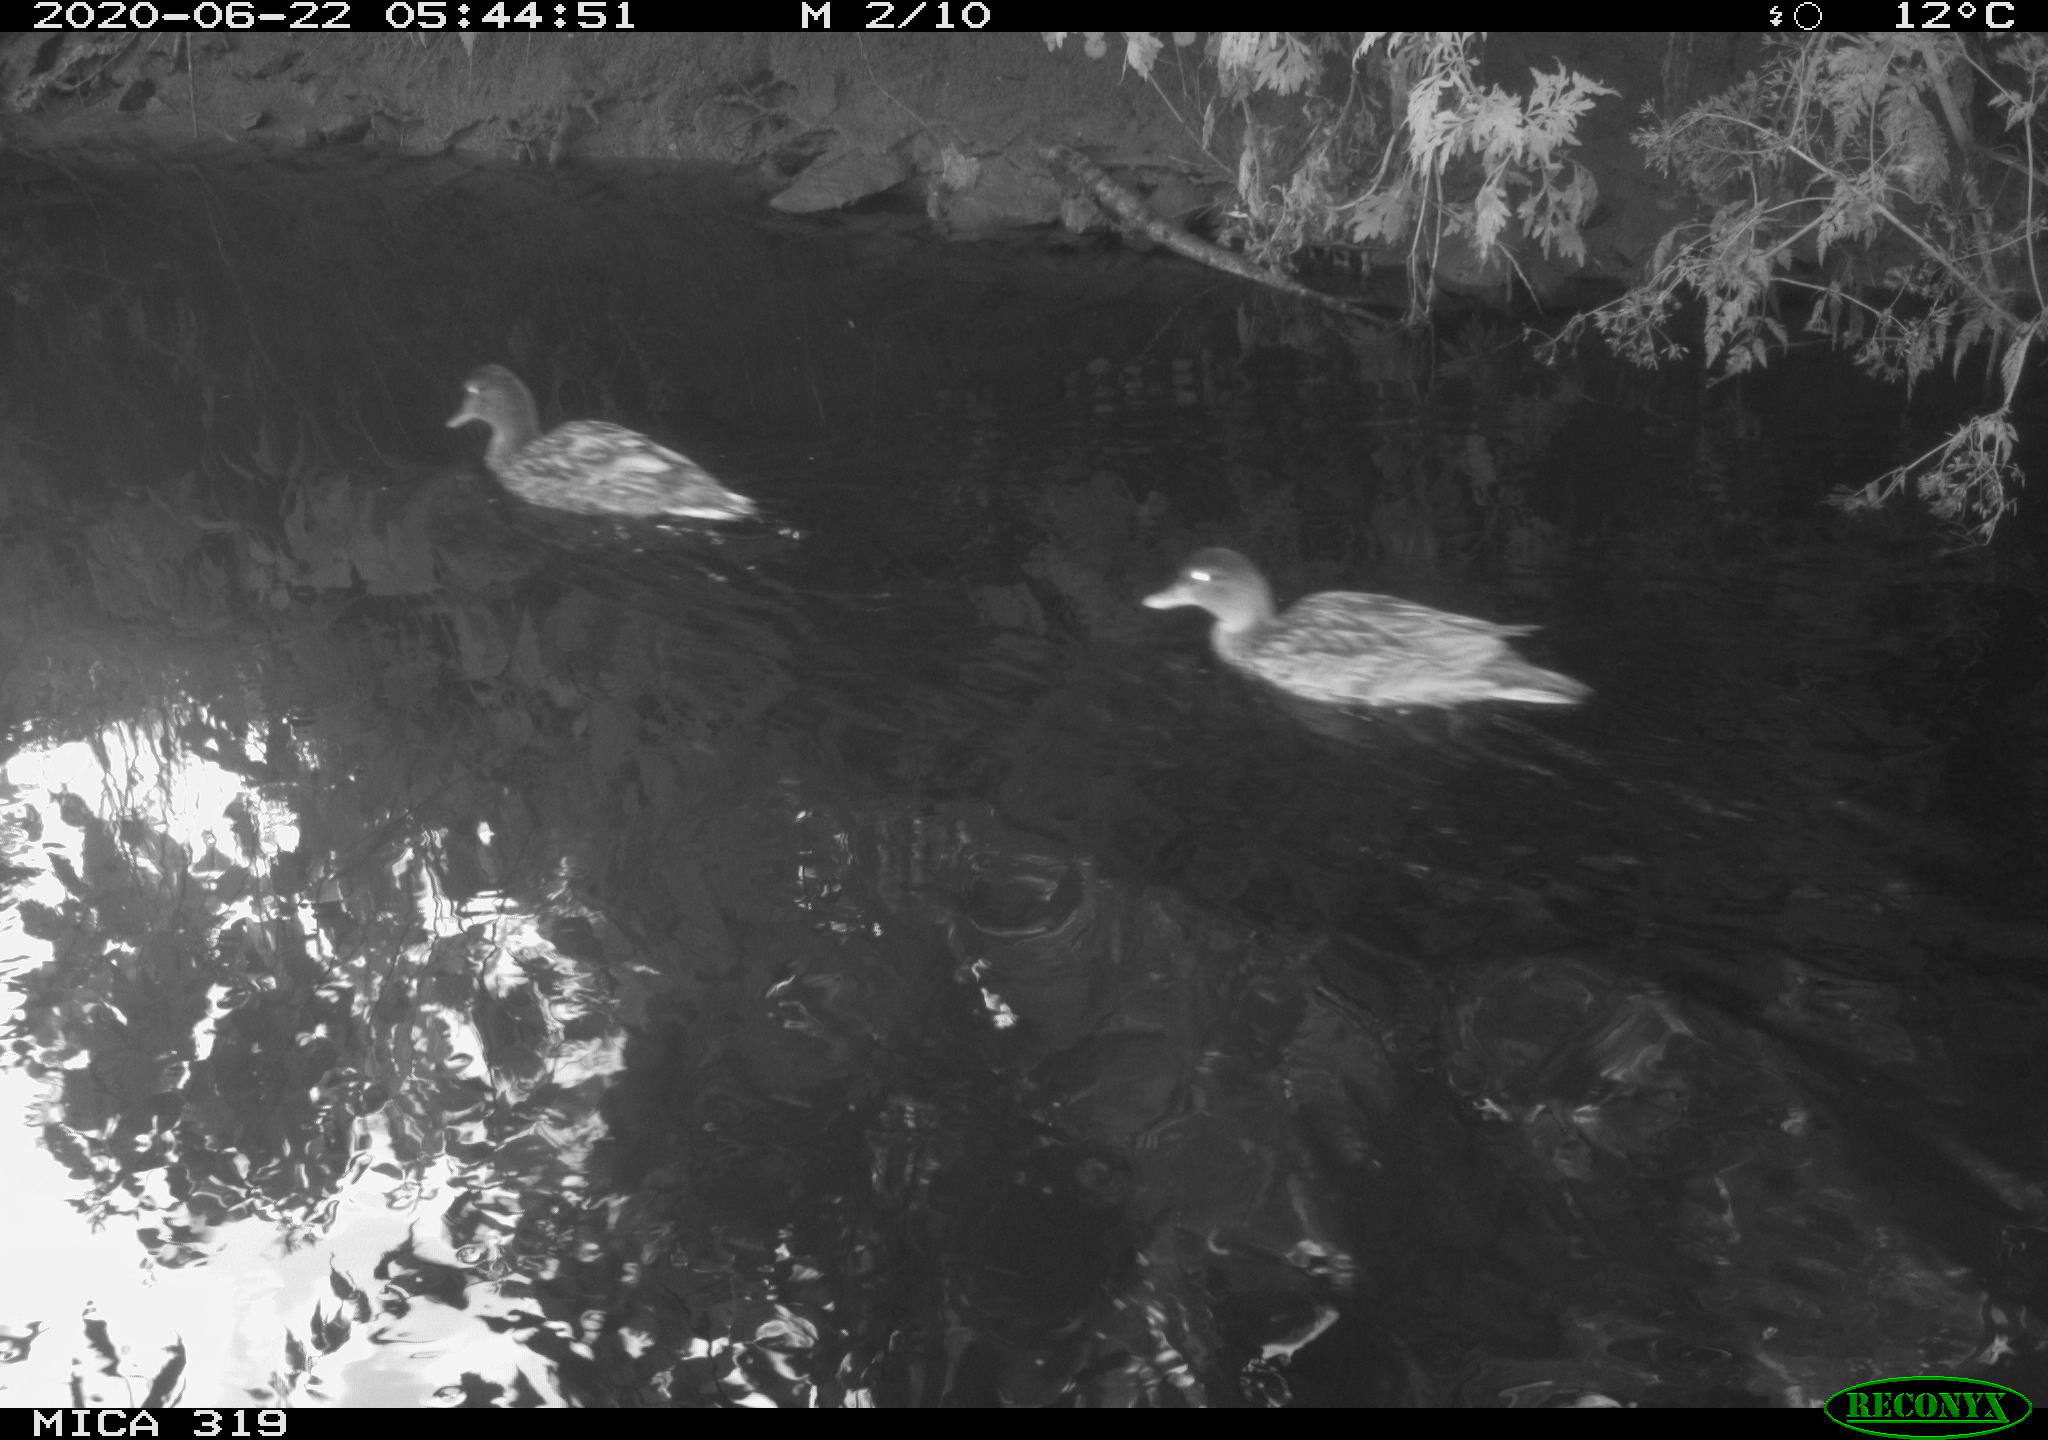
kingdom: Animalia
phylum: Chordata
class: Aves
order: Anseriformes
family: Anatidae
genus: Anas
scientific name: Anas platyrhynchos
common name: Mallard
